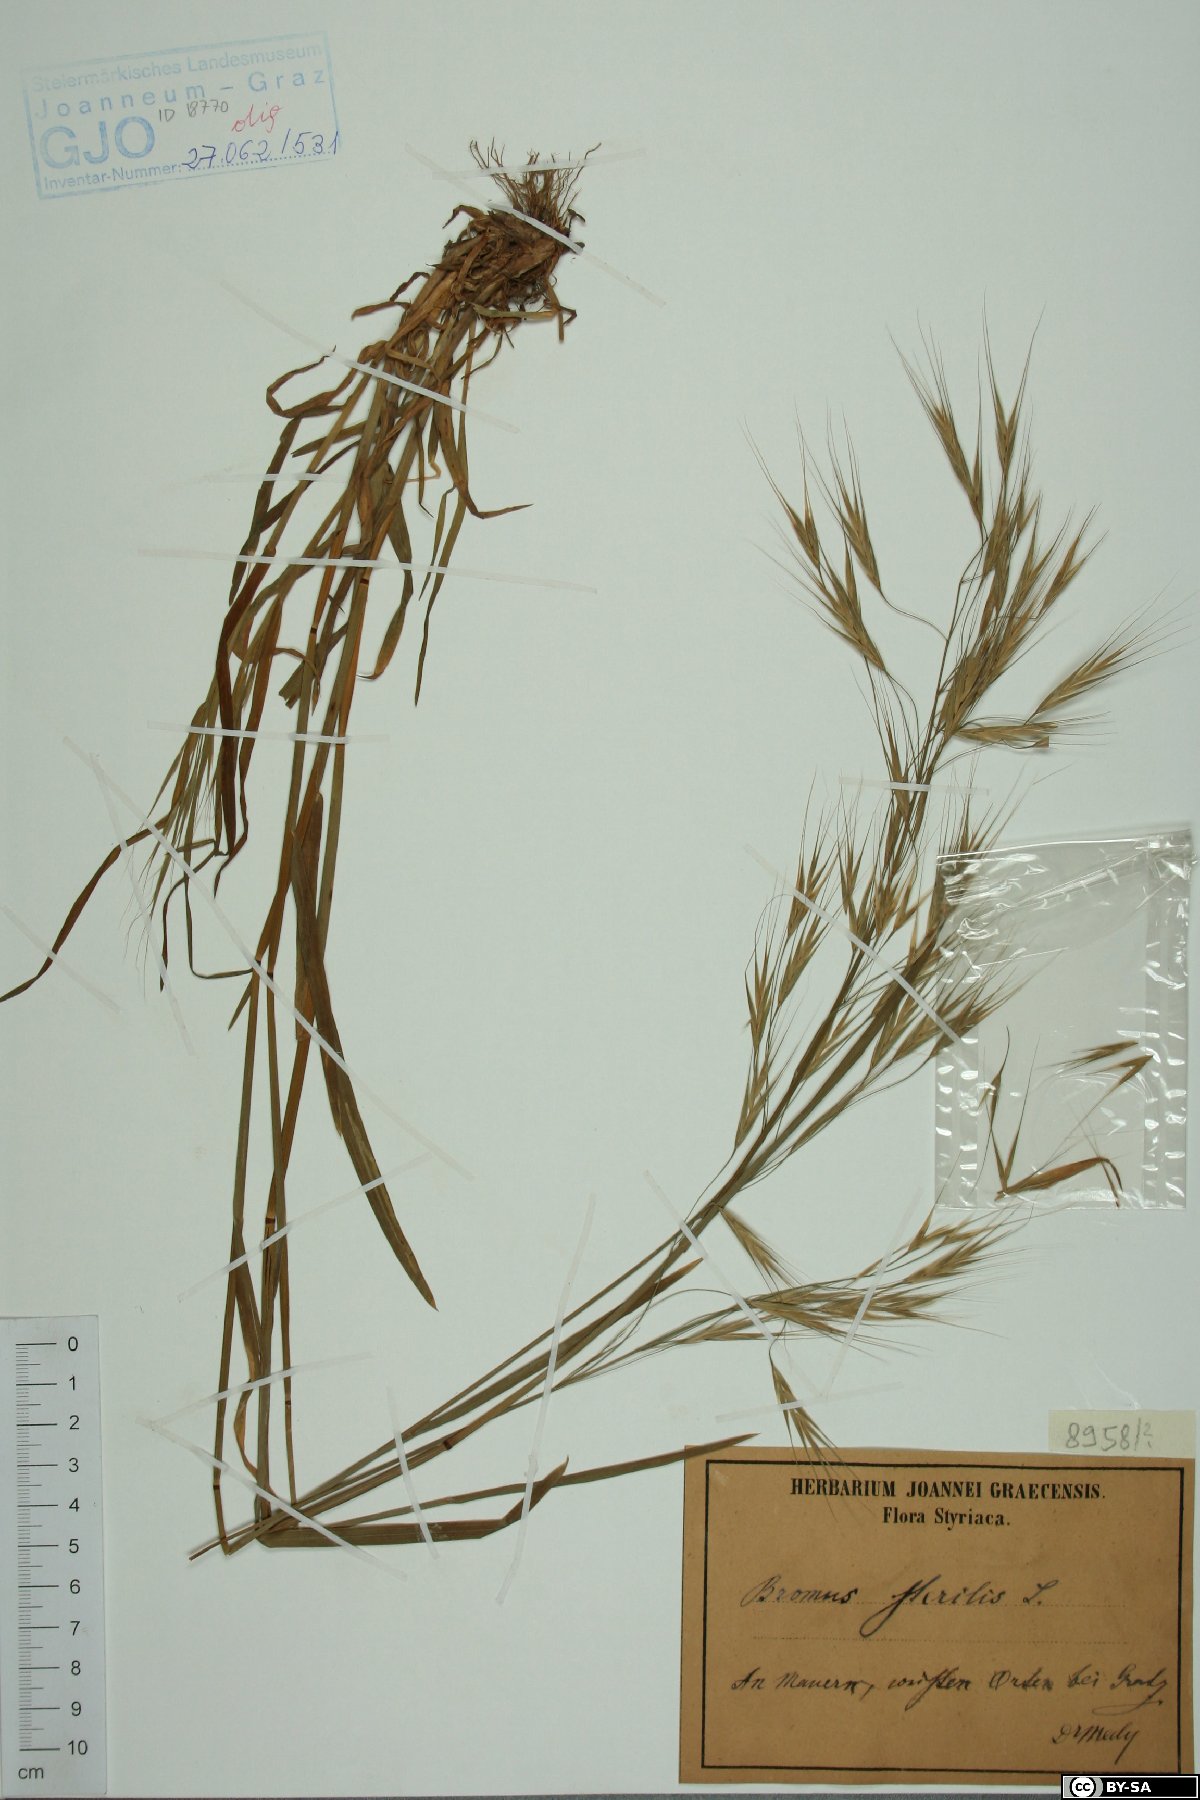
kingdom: Plantae
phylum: Tracheophyta
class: Liliopsida
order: Poales
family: Poaceae
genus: Bromus
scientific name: Bromus sterilis
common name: Poverty brome
